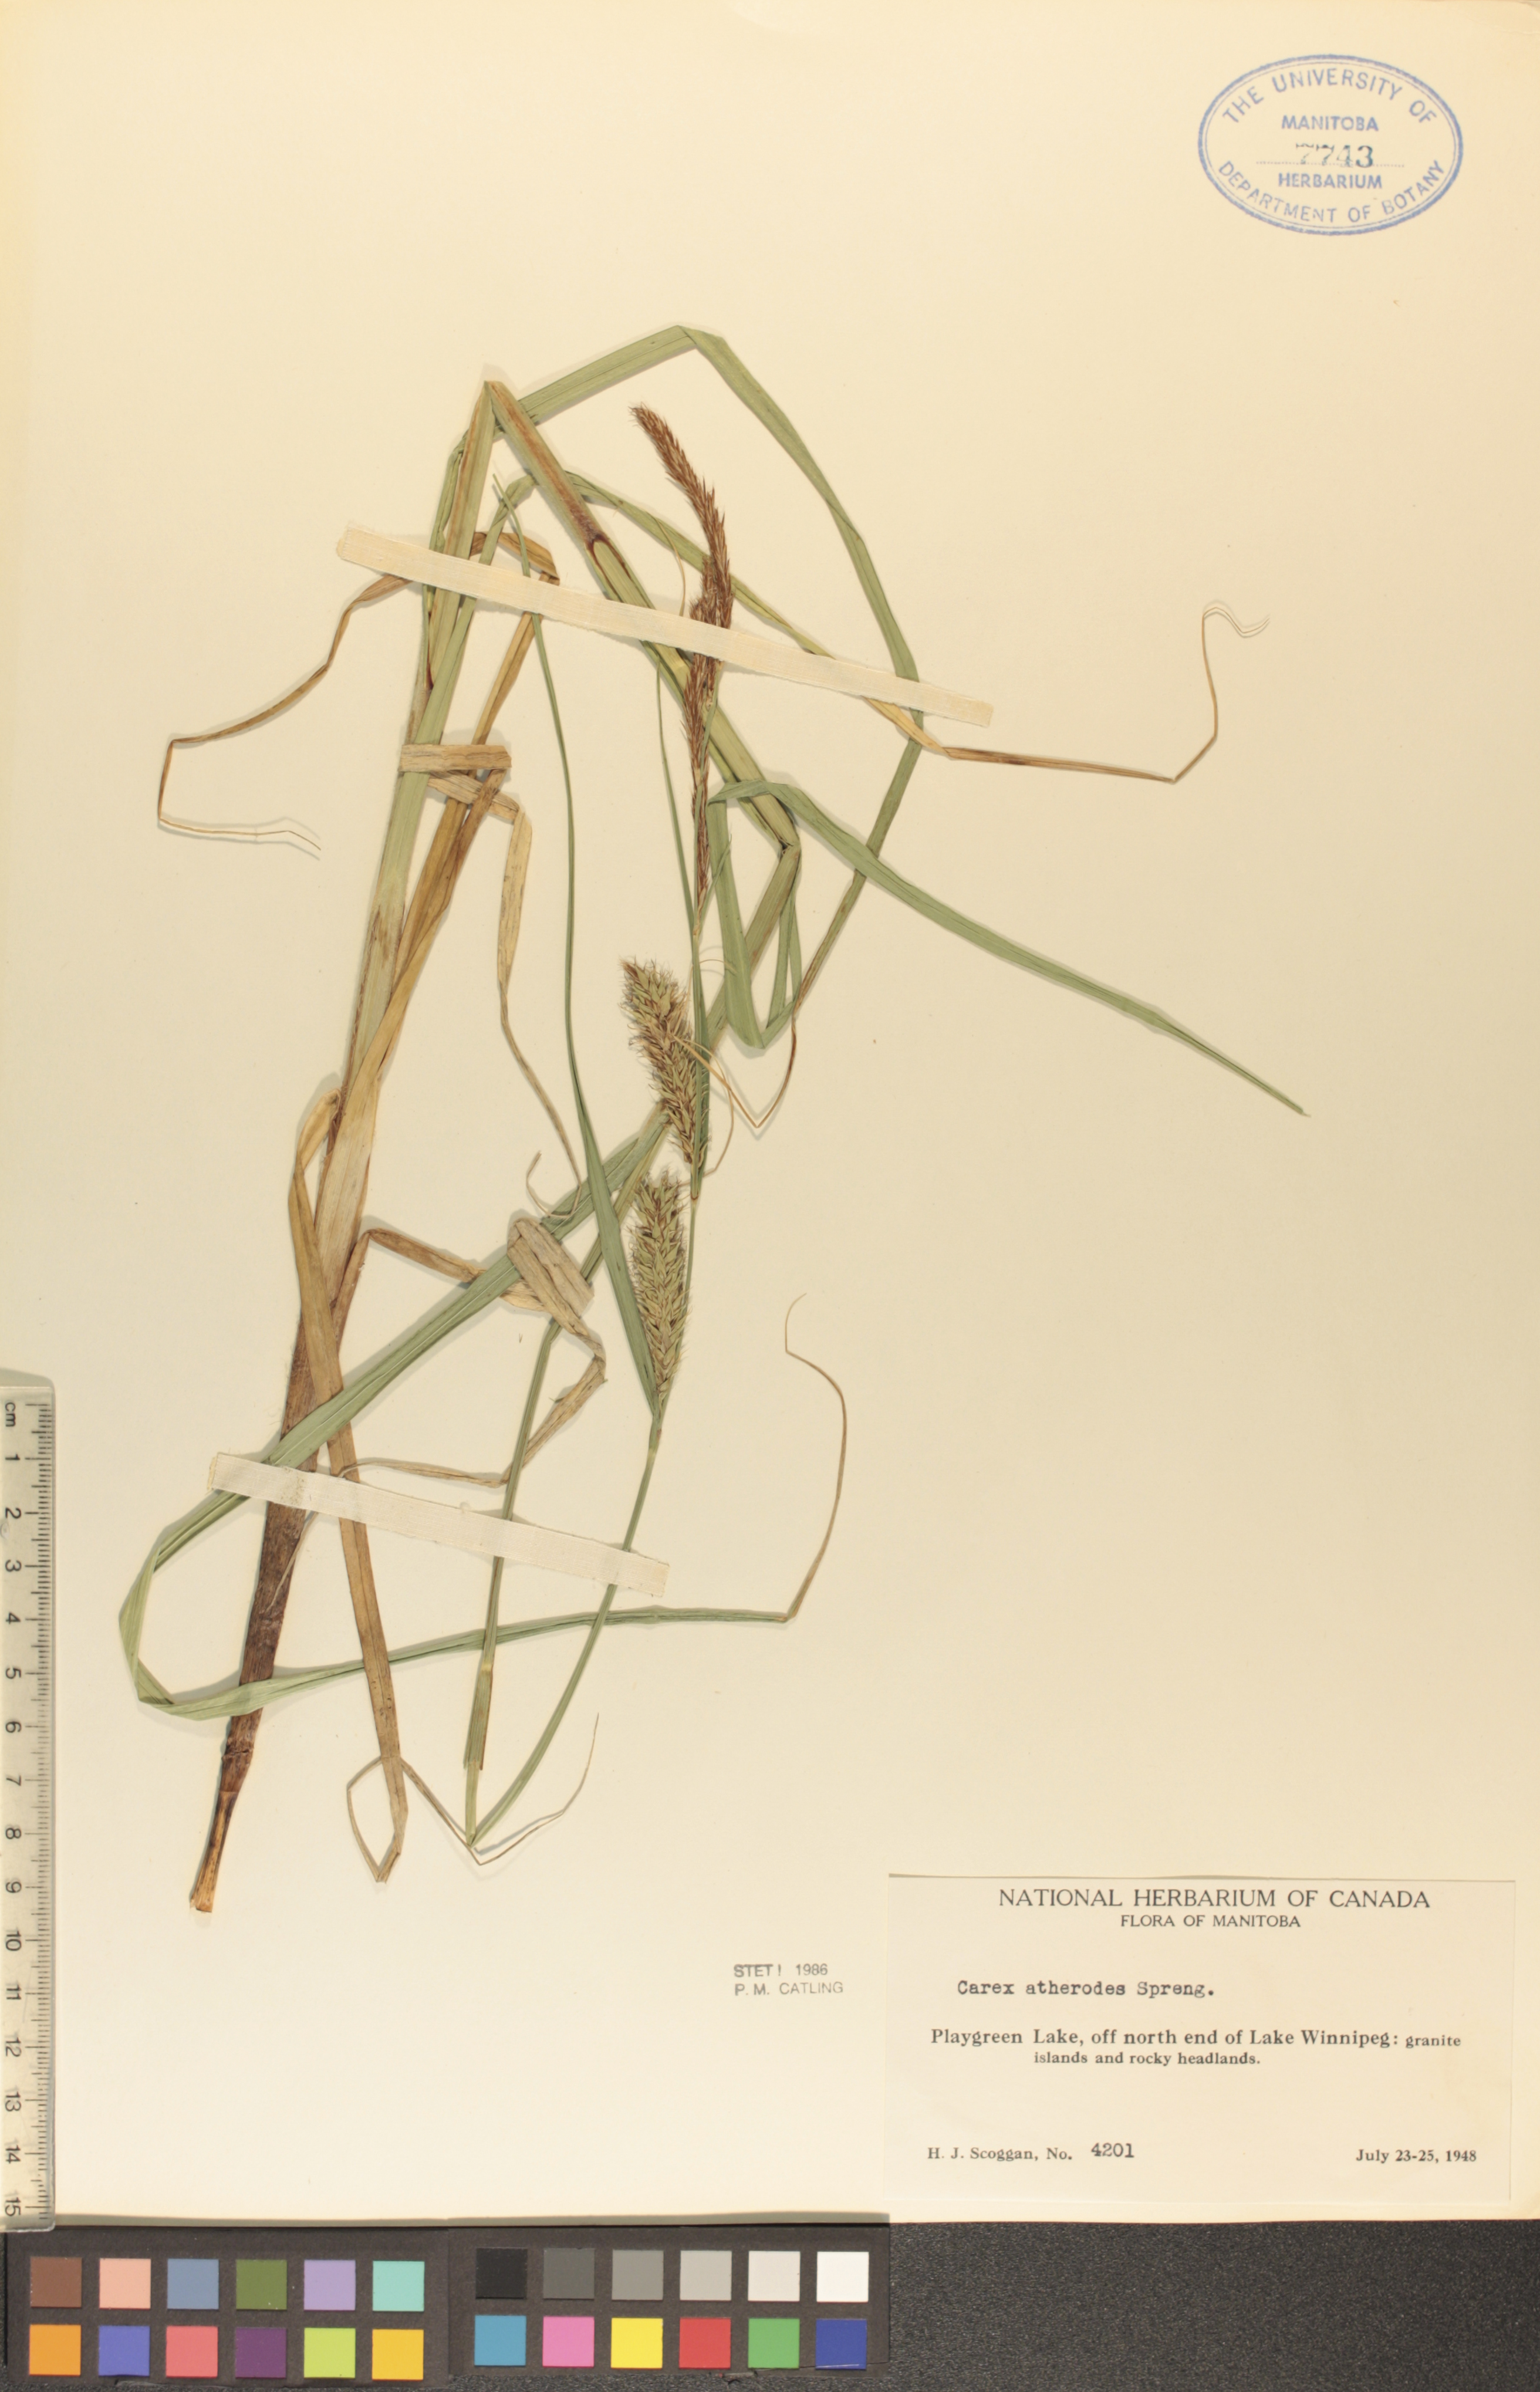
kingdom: Plantae
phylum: Tracheophyta
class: Liliopsida
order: Poales
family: Cyperaceae
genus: Carex
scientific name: Carex atherodes
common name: Wheat sedge
